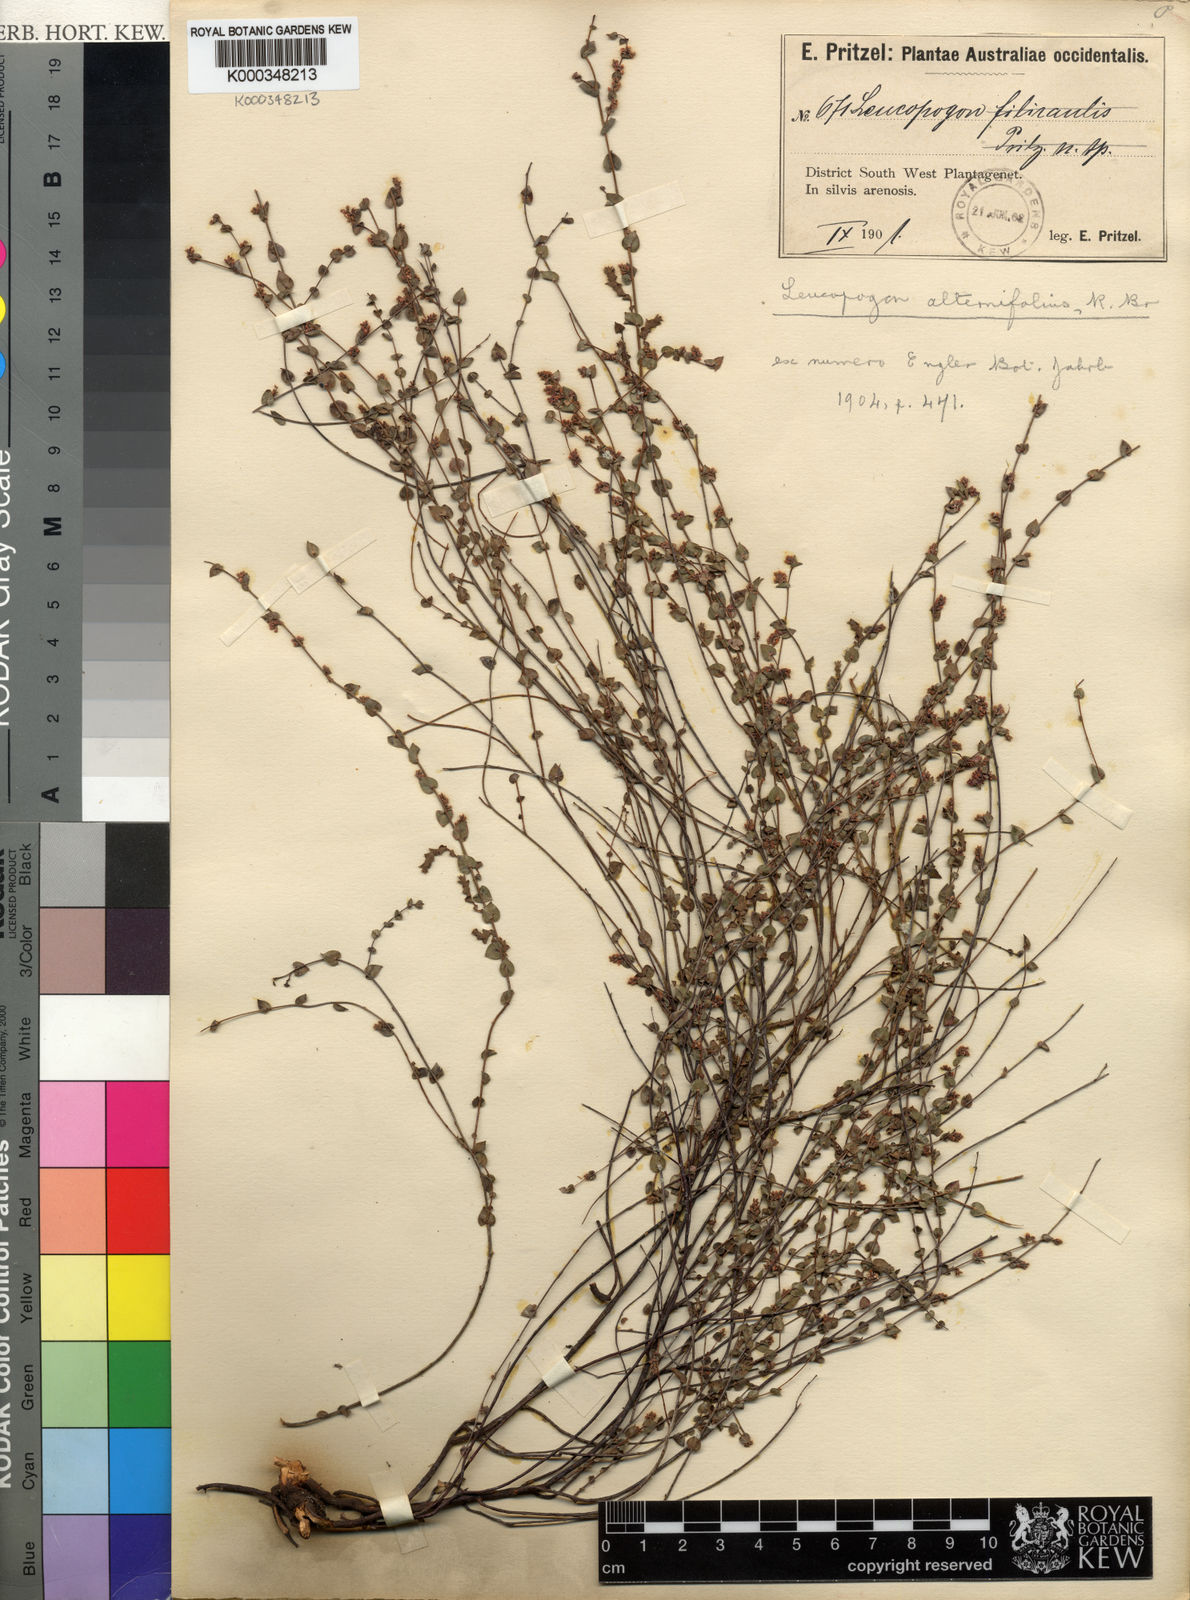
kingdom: Plantae
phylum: Tracheophyta
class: Magnoliopsida
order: Ericales
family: Ericaceae
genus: Leucopogon
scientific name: Leucopogon alternifolius
